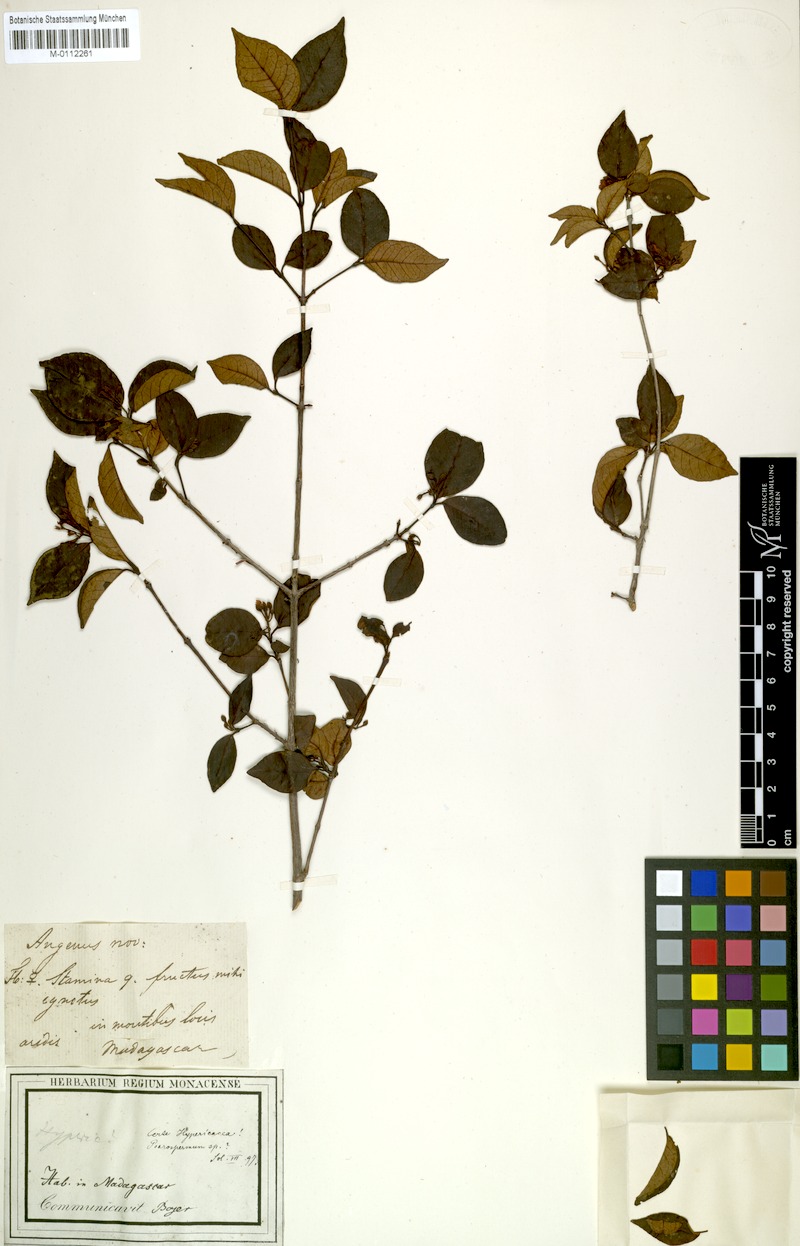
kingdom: Plantae
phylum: Tracheophyta
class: Magnoliopsida
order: Malpighiales
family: Hypericaceae
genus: Psorospermum
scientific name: Psorospermum
